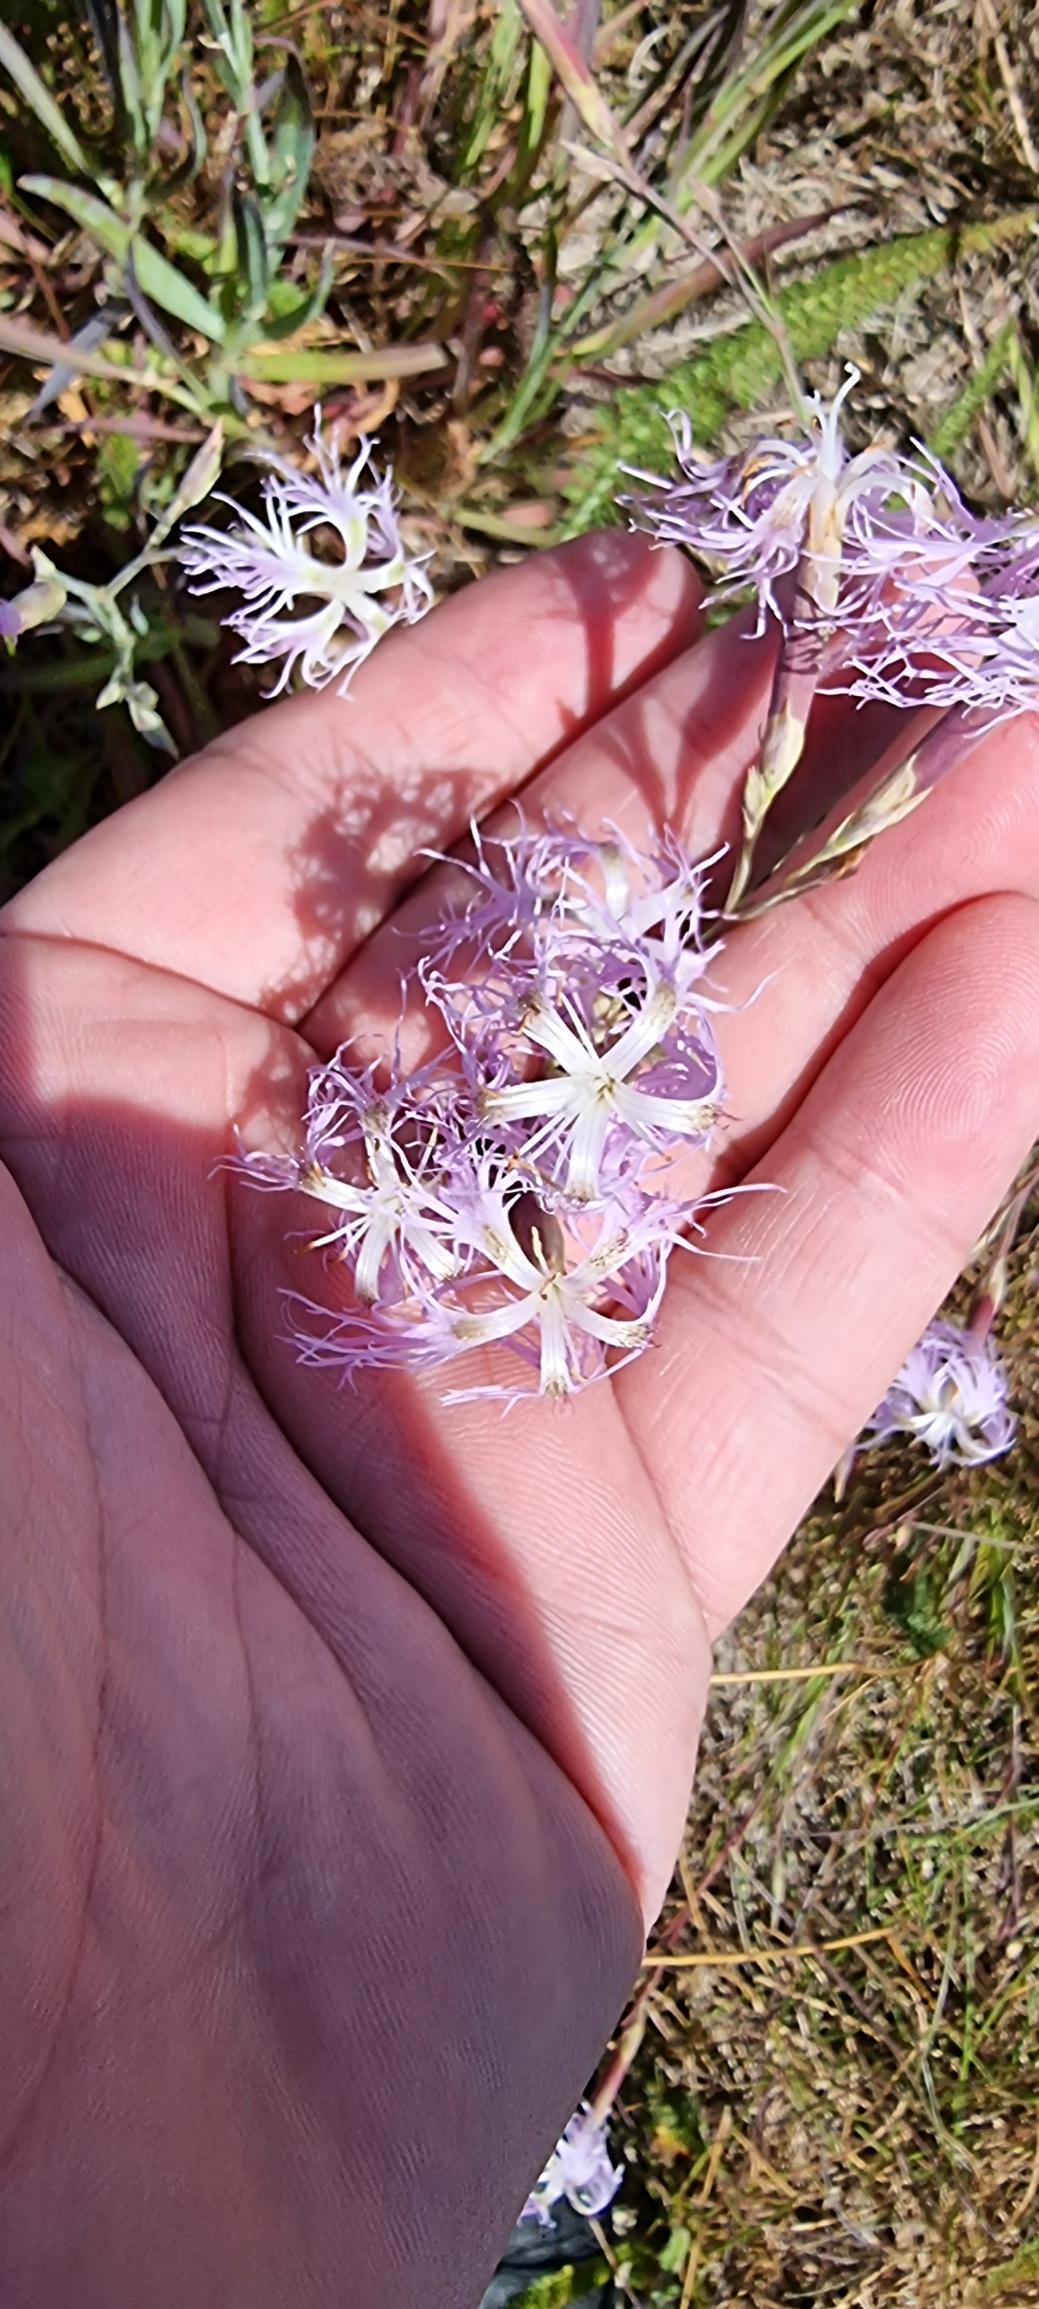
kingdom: Plantae
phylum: Tracheophyta
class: Magnoliopsida
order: Caryophyllales
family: Caryophyllaceae
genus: Dianthus
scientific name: Dianthus superbus
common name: Strand-nellike
